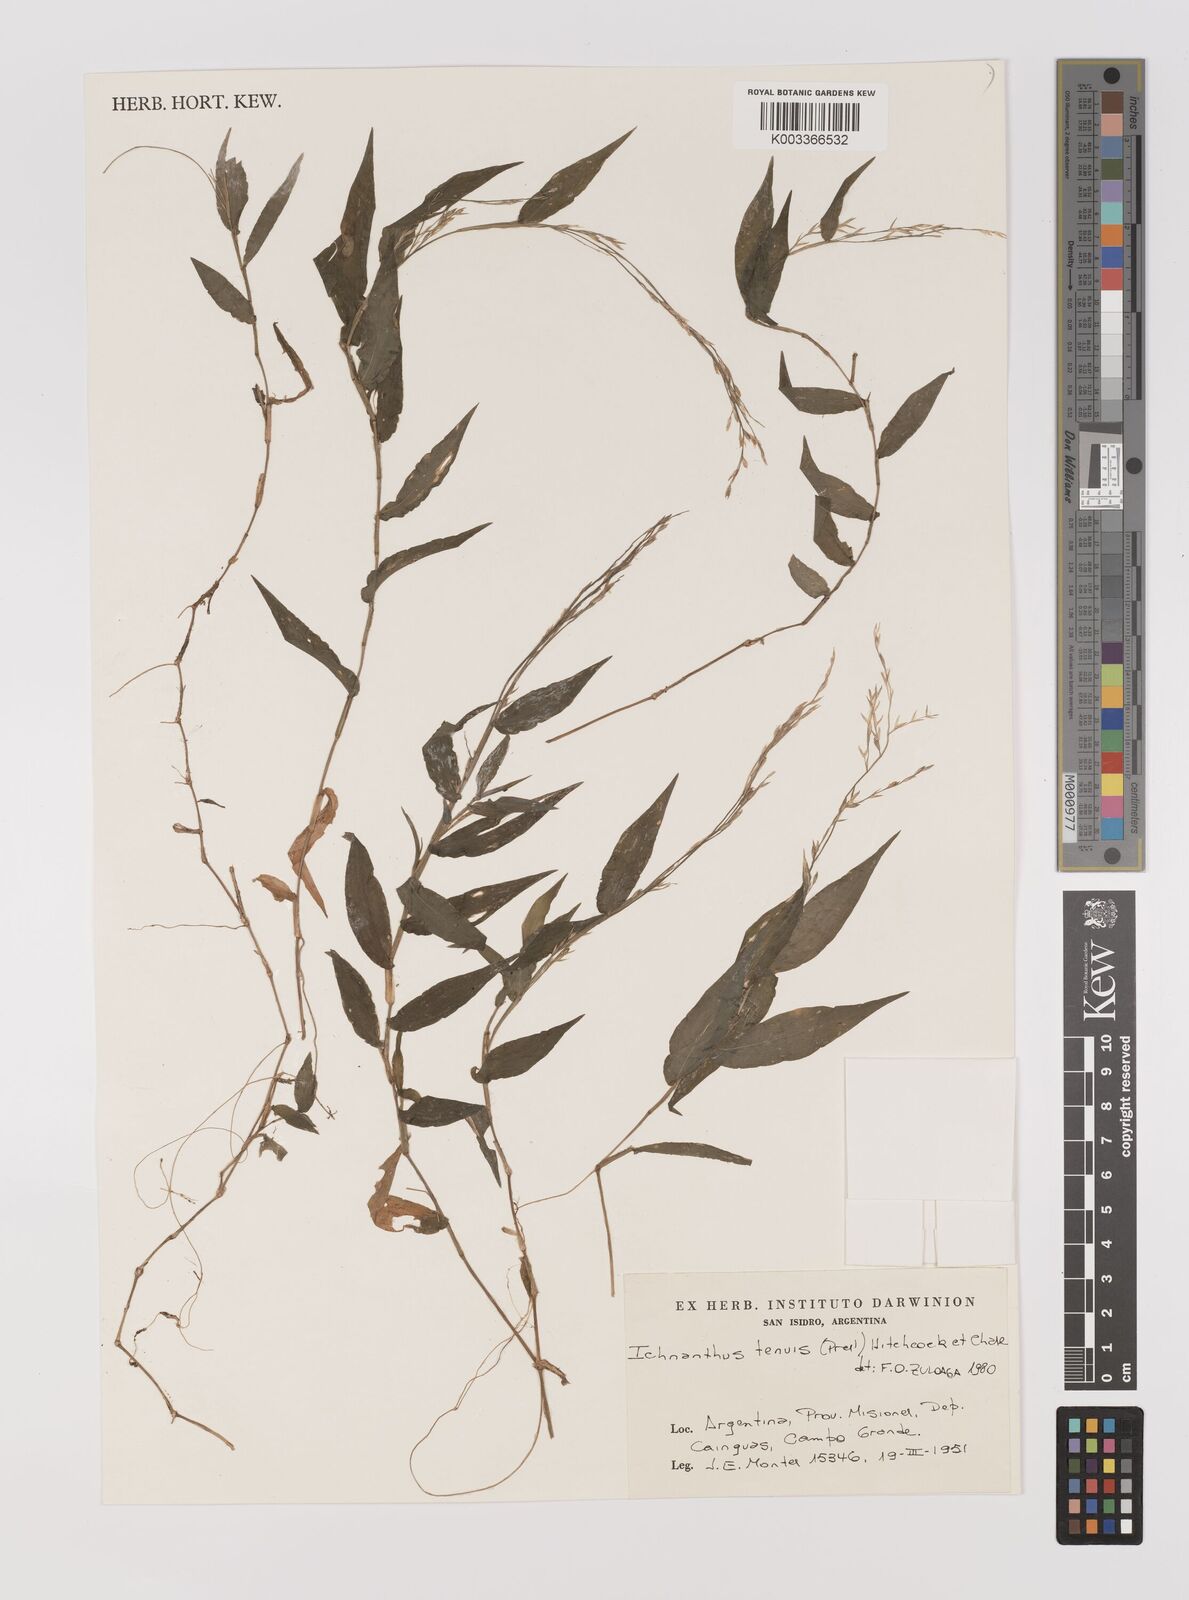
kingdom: Plantae
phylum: Tracheophyta
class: Liliopsida
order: Poales
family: Poaceae
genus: Ichnanthus
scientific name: Ichnanthus tenuis
